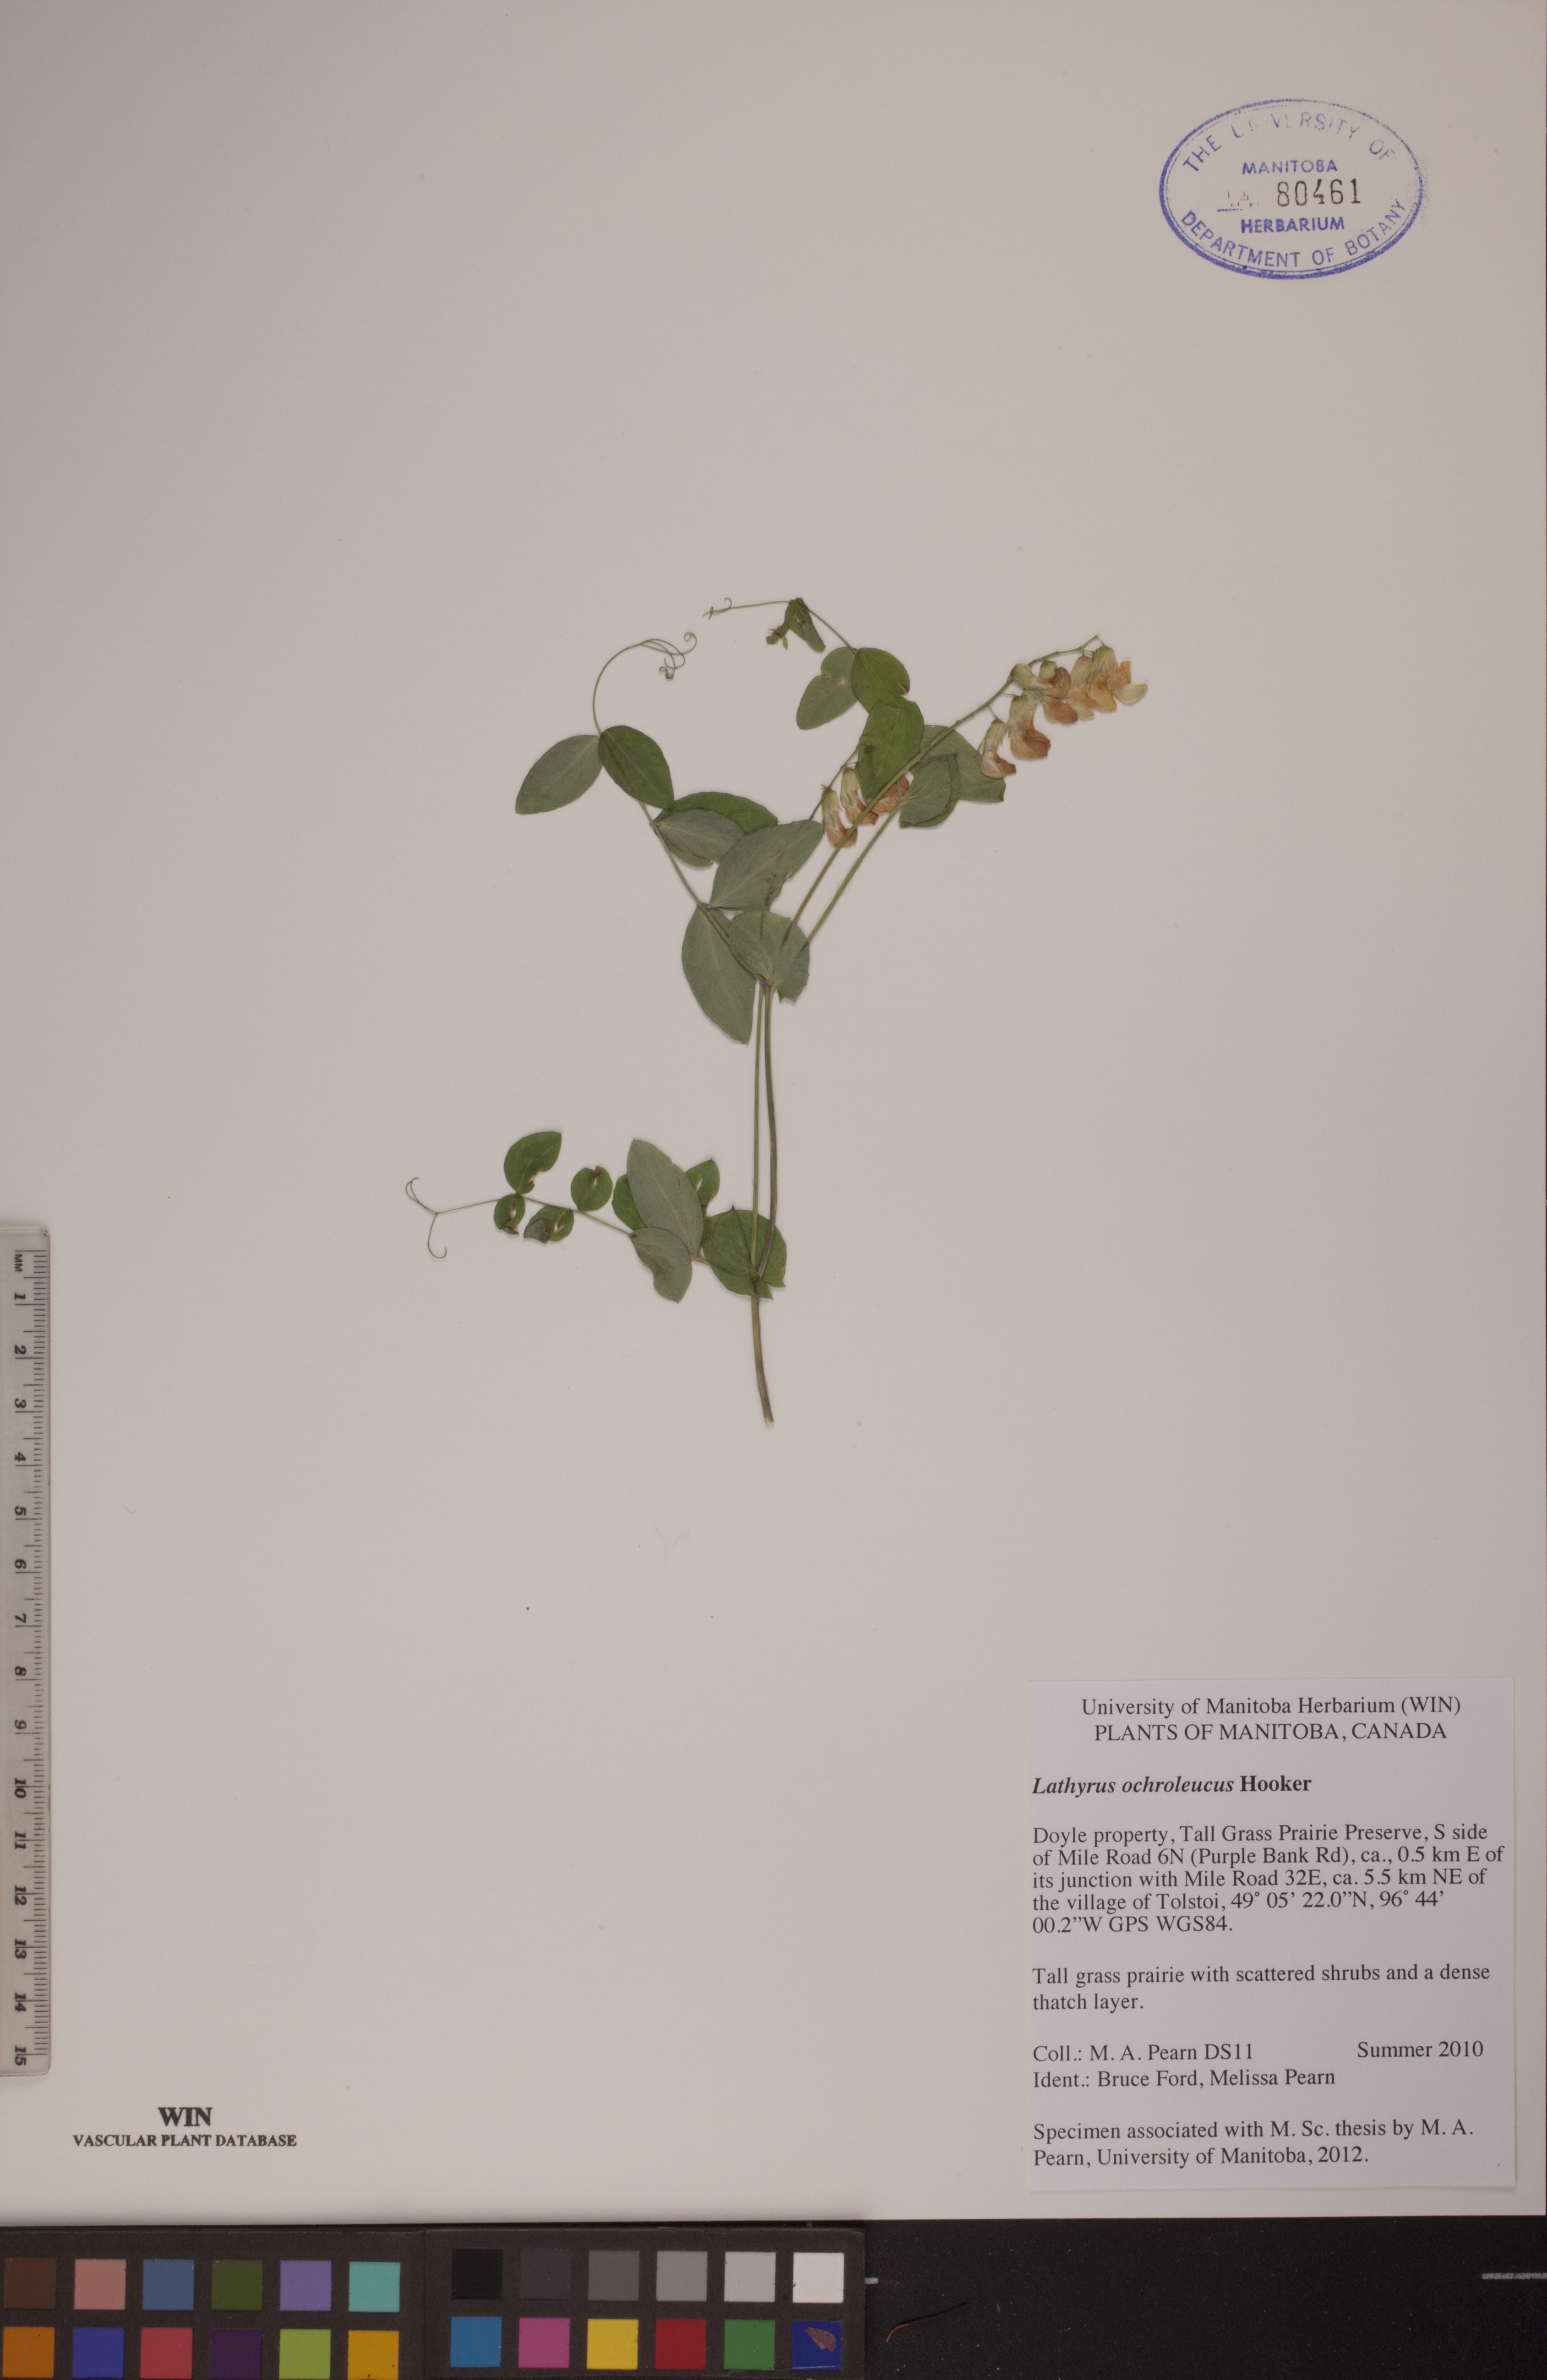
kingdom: Plantae
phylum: Tracheophyta
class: Magnoliopsida
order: Fabales
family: Fabaceae
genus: Lathyrus
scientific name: Lathyrus ochroleucus
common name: Pale vetchling
